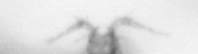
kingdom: Animalia
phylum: Arthropoda
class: Copepoda
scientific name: Copepoda
